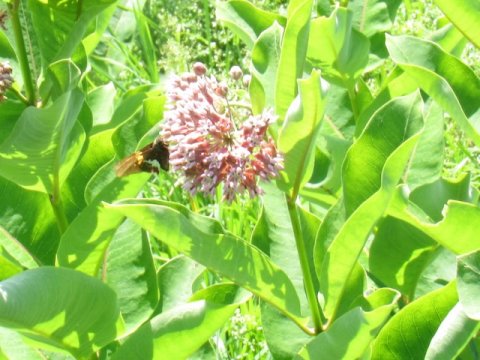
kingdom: Animalia
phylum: Arthropoda
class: Insecta
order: Lepidoptera
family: Hesperiidae
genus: Epargyreus
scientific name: Epargyreus clarus
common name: Silver-spotted Skipper
